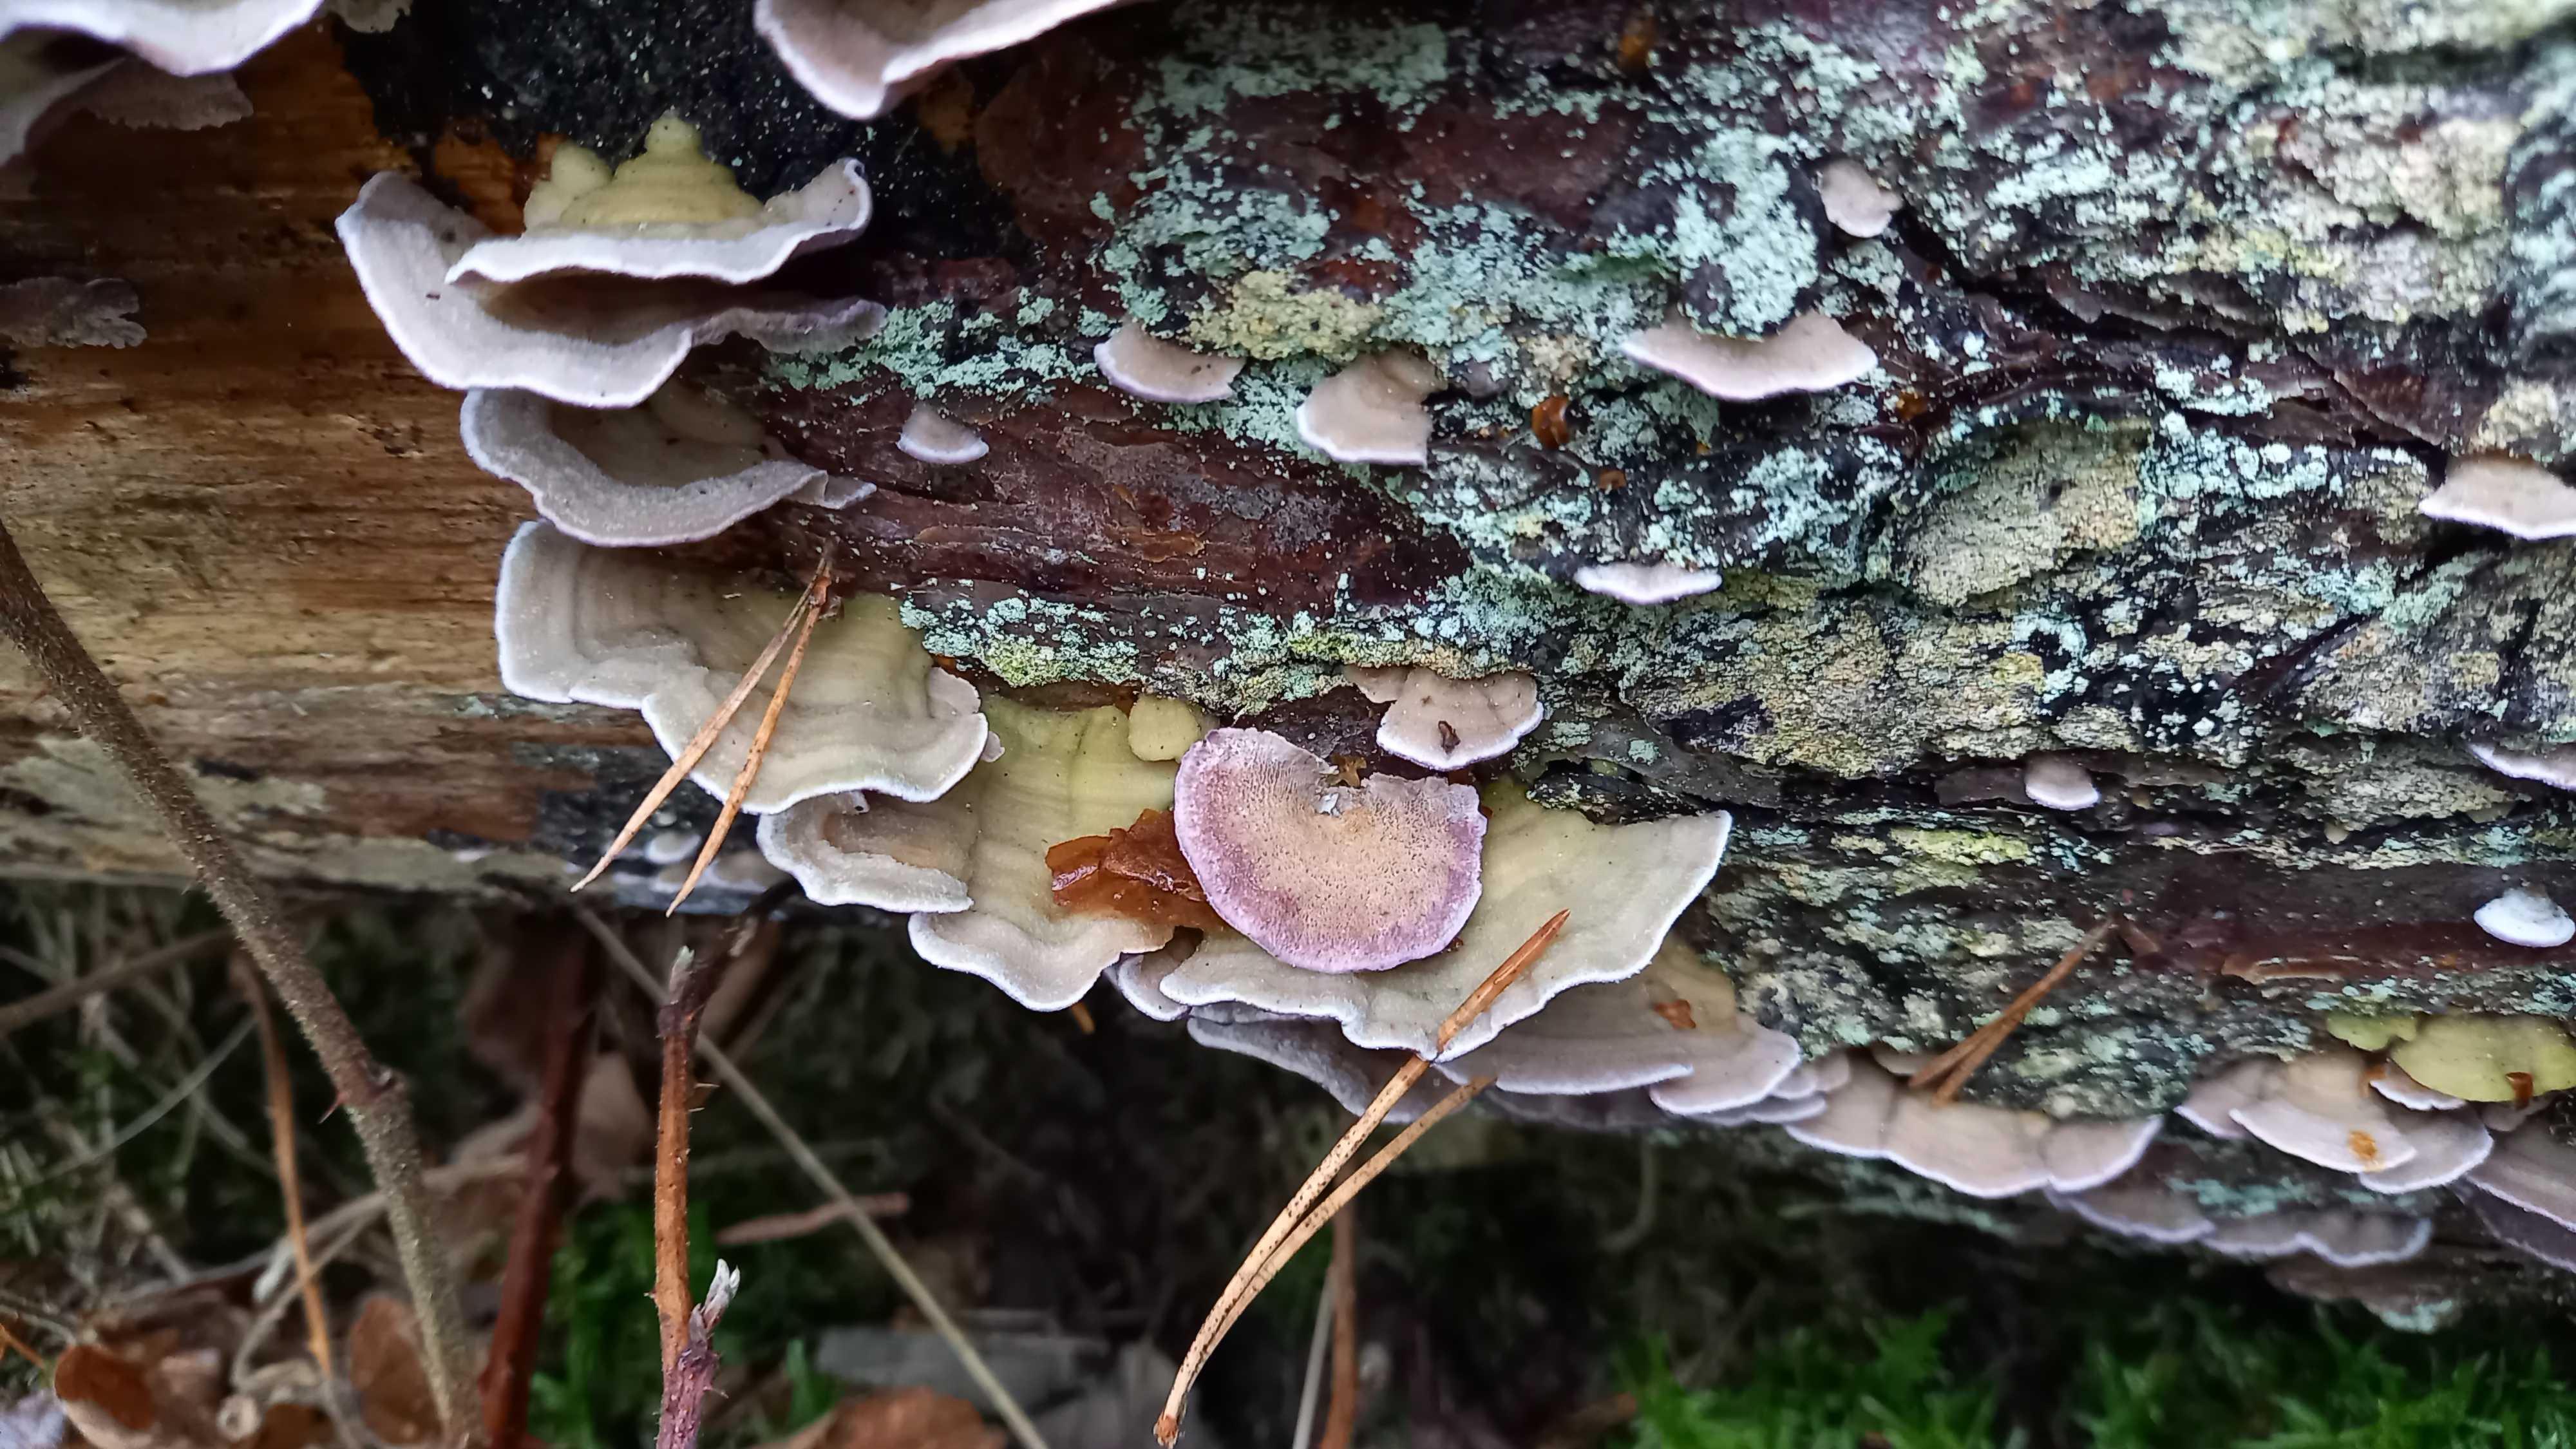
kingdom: Fungi
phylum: Basidiomycota
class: Agaricomycetes
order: Hymenochaetales
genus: Trichaptum
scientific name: Trichaptum abietinum
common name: almindelig violporesvamp
